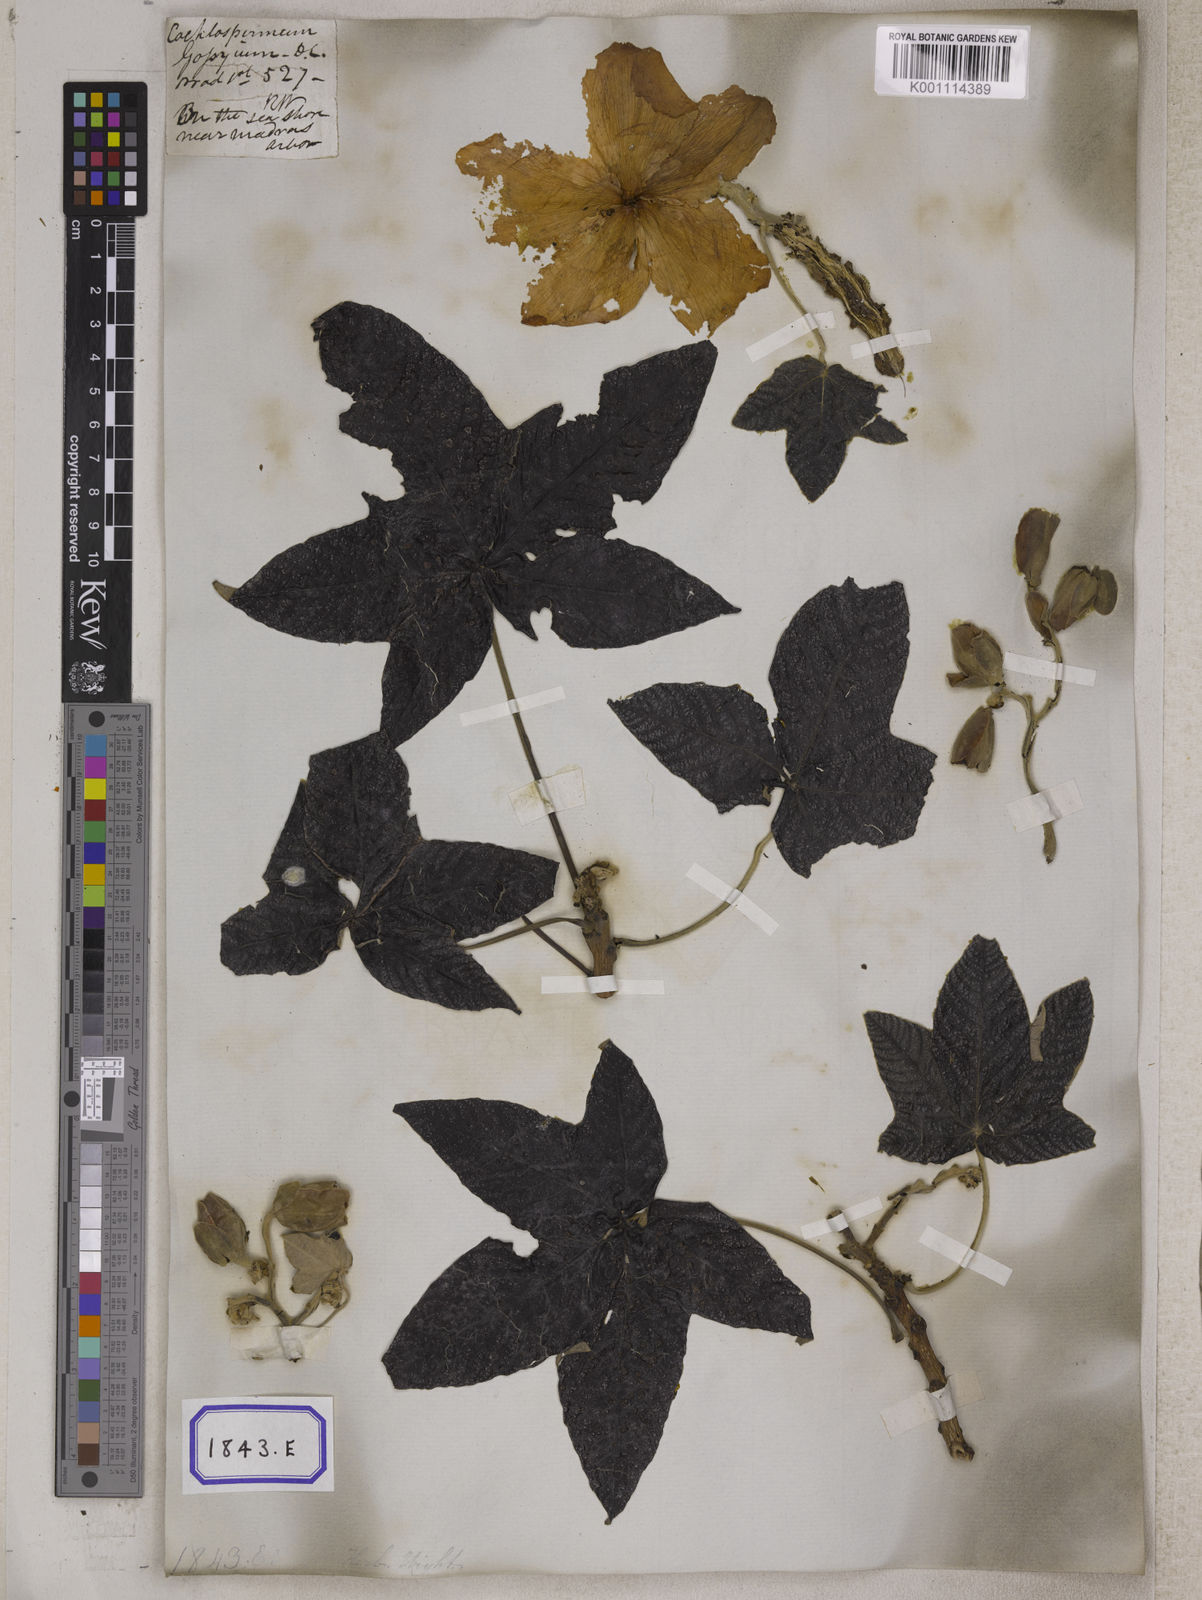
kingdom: Plantae
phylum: Tracheophyta
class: Magnoliopsida
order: Malvales
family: Cochlospermaceae
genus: Cochlospermum
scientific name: Cochlospermum religiosum
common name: Cottontree
